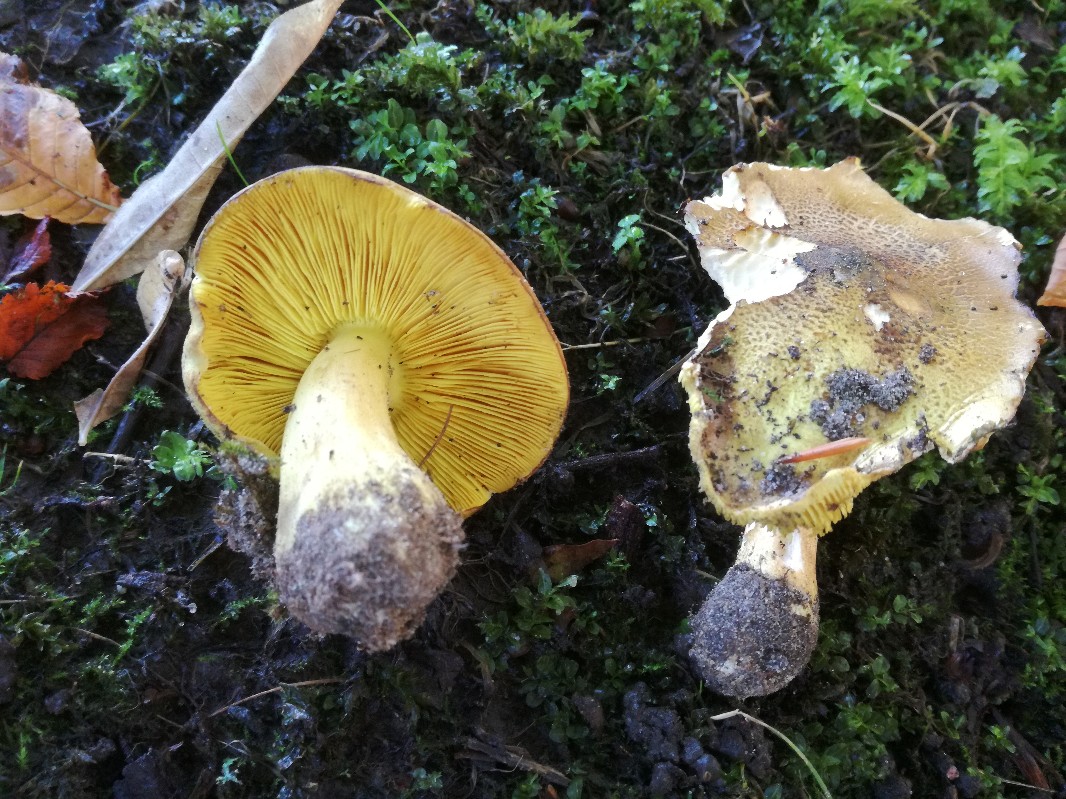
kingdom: Fungi
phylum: Basidiomycota
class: Agaricomycetes
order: Agaricales
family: Tricholomataceae
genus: Tricholoma
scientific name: Tricholoma frondosae
